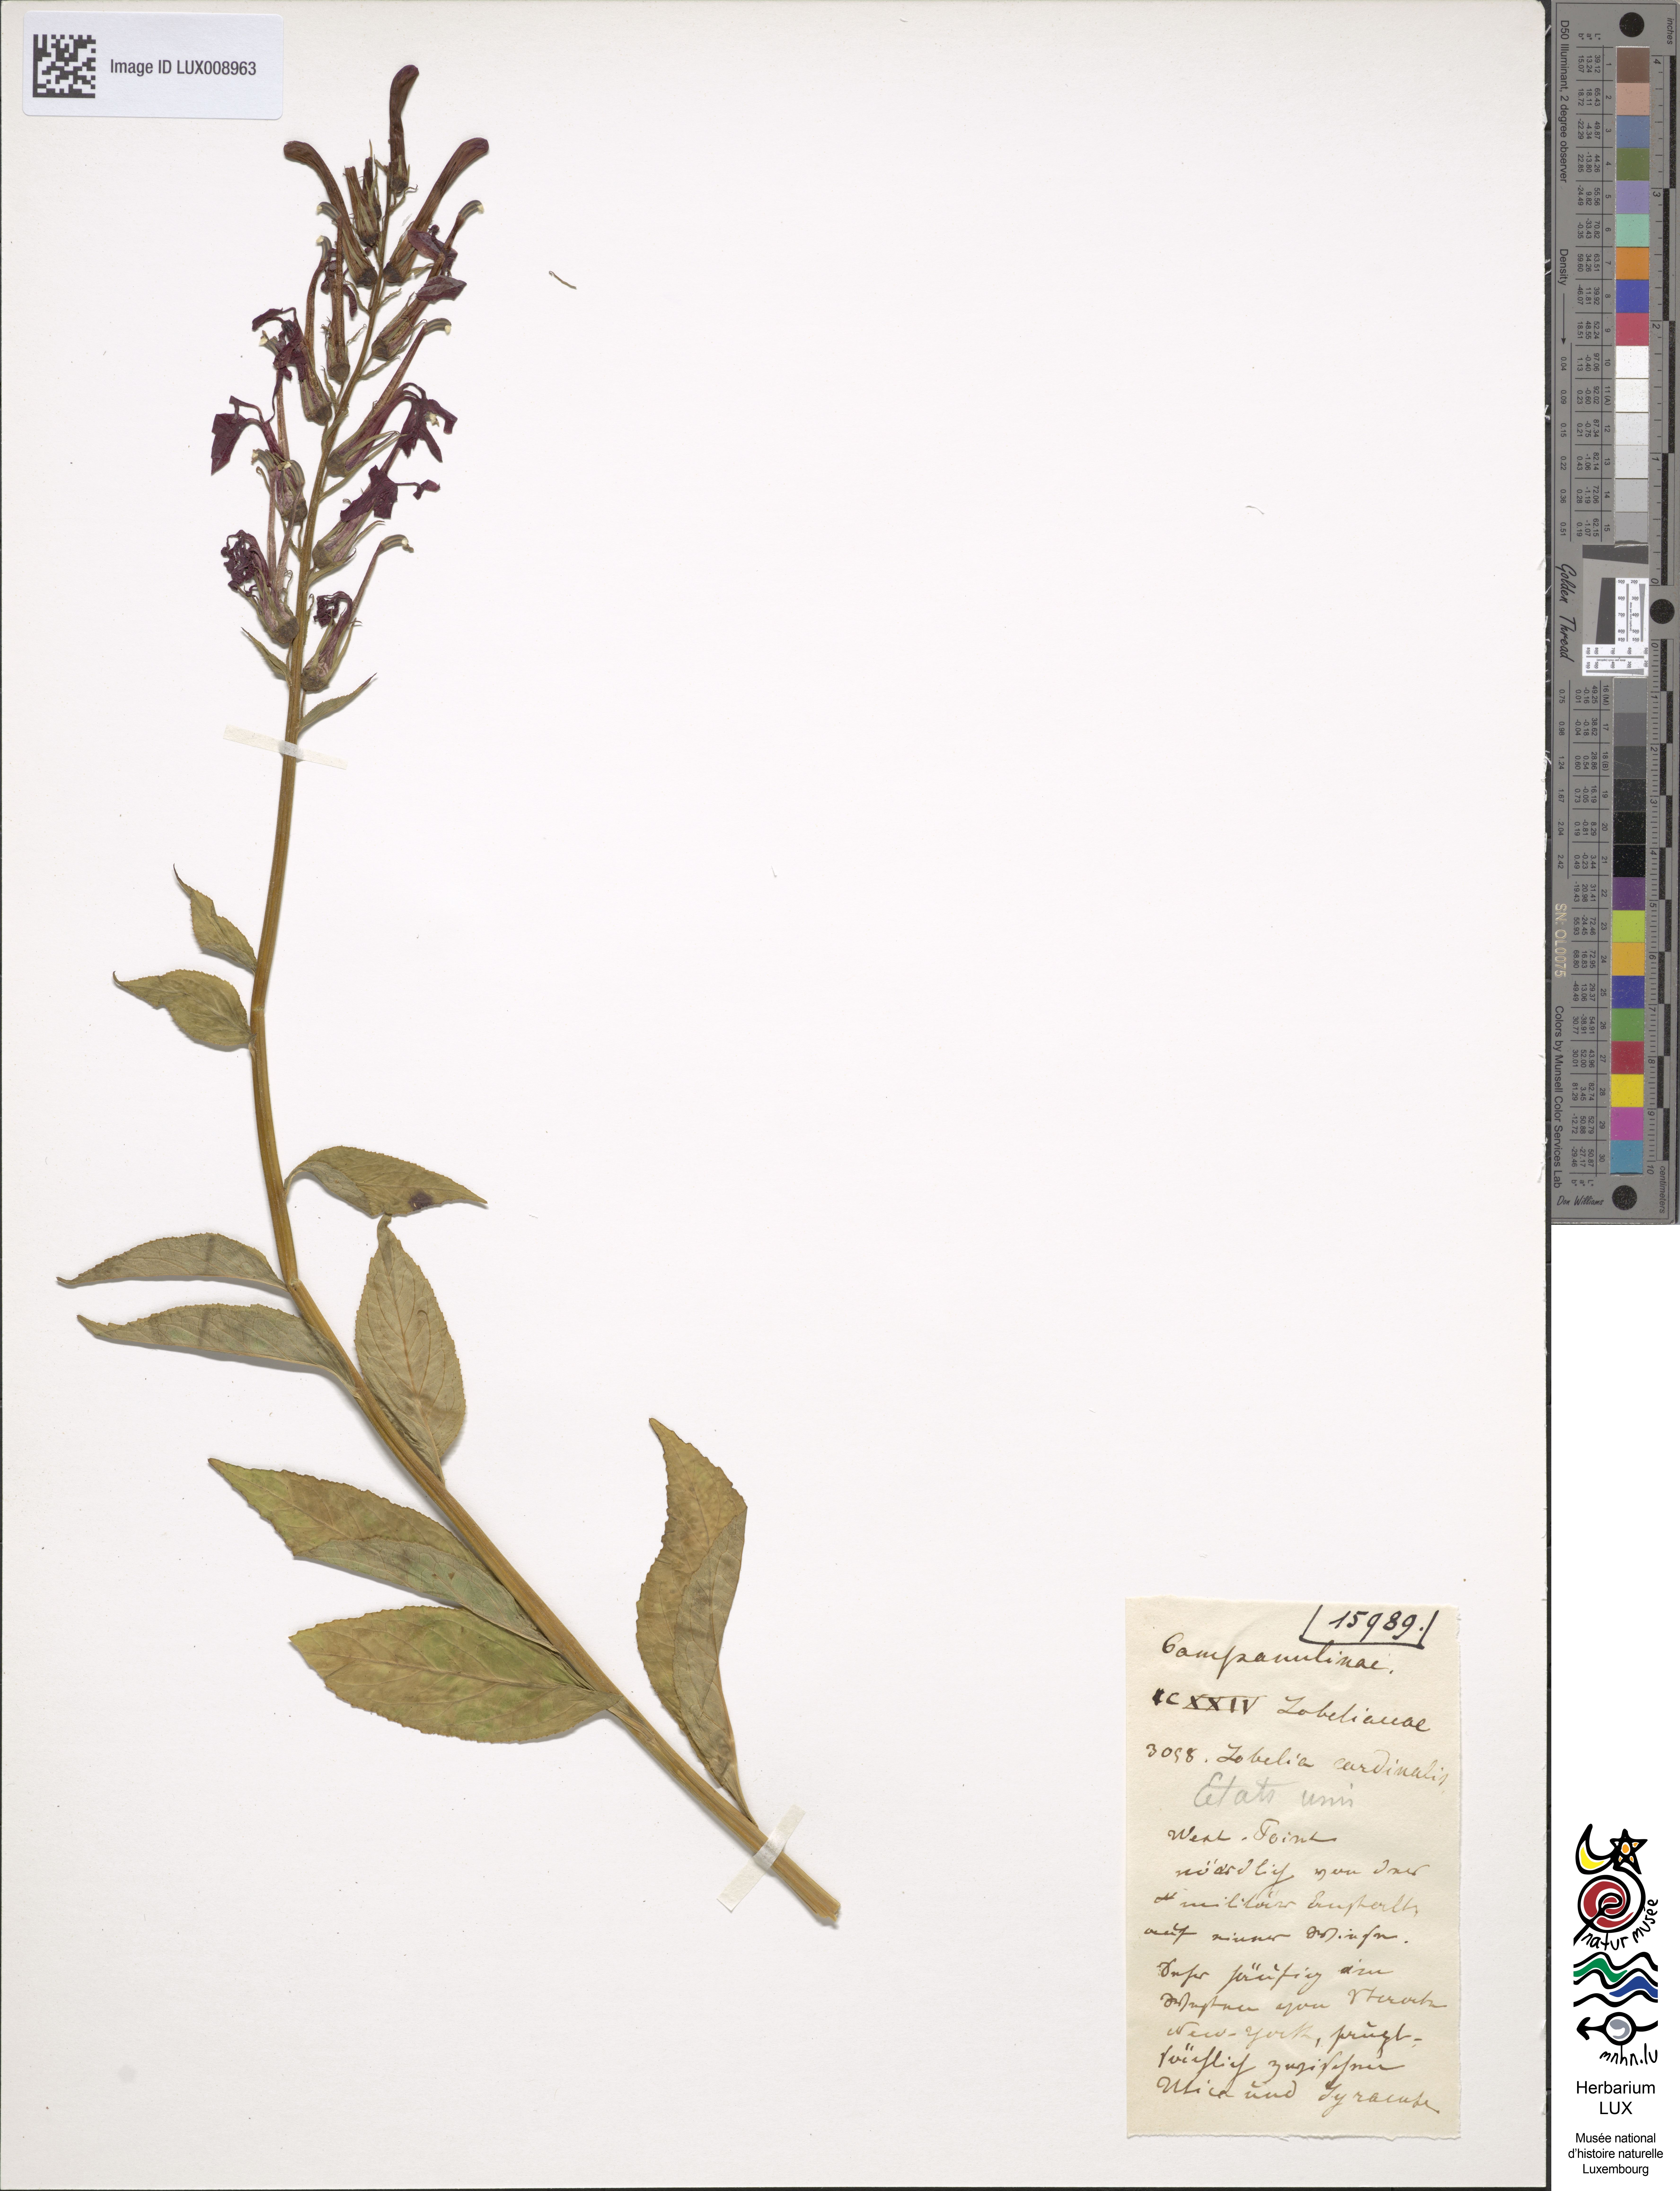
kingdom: Plantae
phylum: Tracheophyta
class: Magnoliopsida
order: Asterales
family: Campanulaceae
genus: Lobelia
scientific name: Lobelia cardinalis
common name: Cardinal flower
